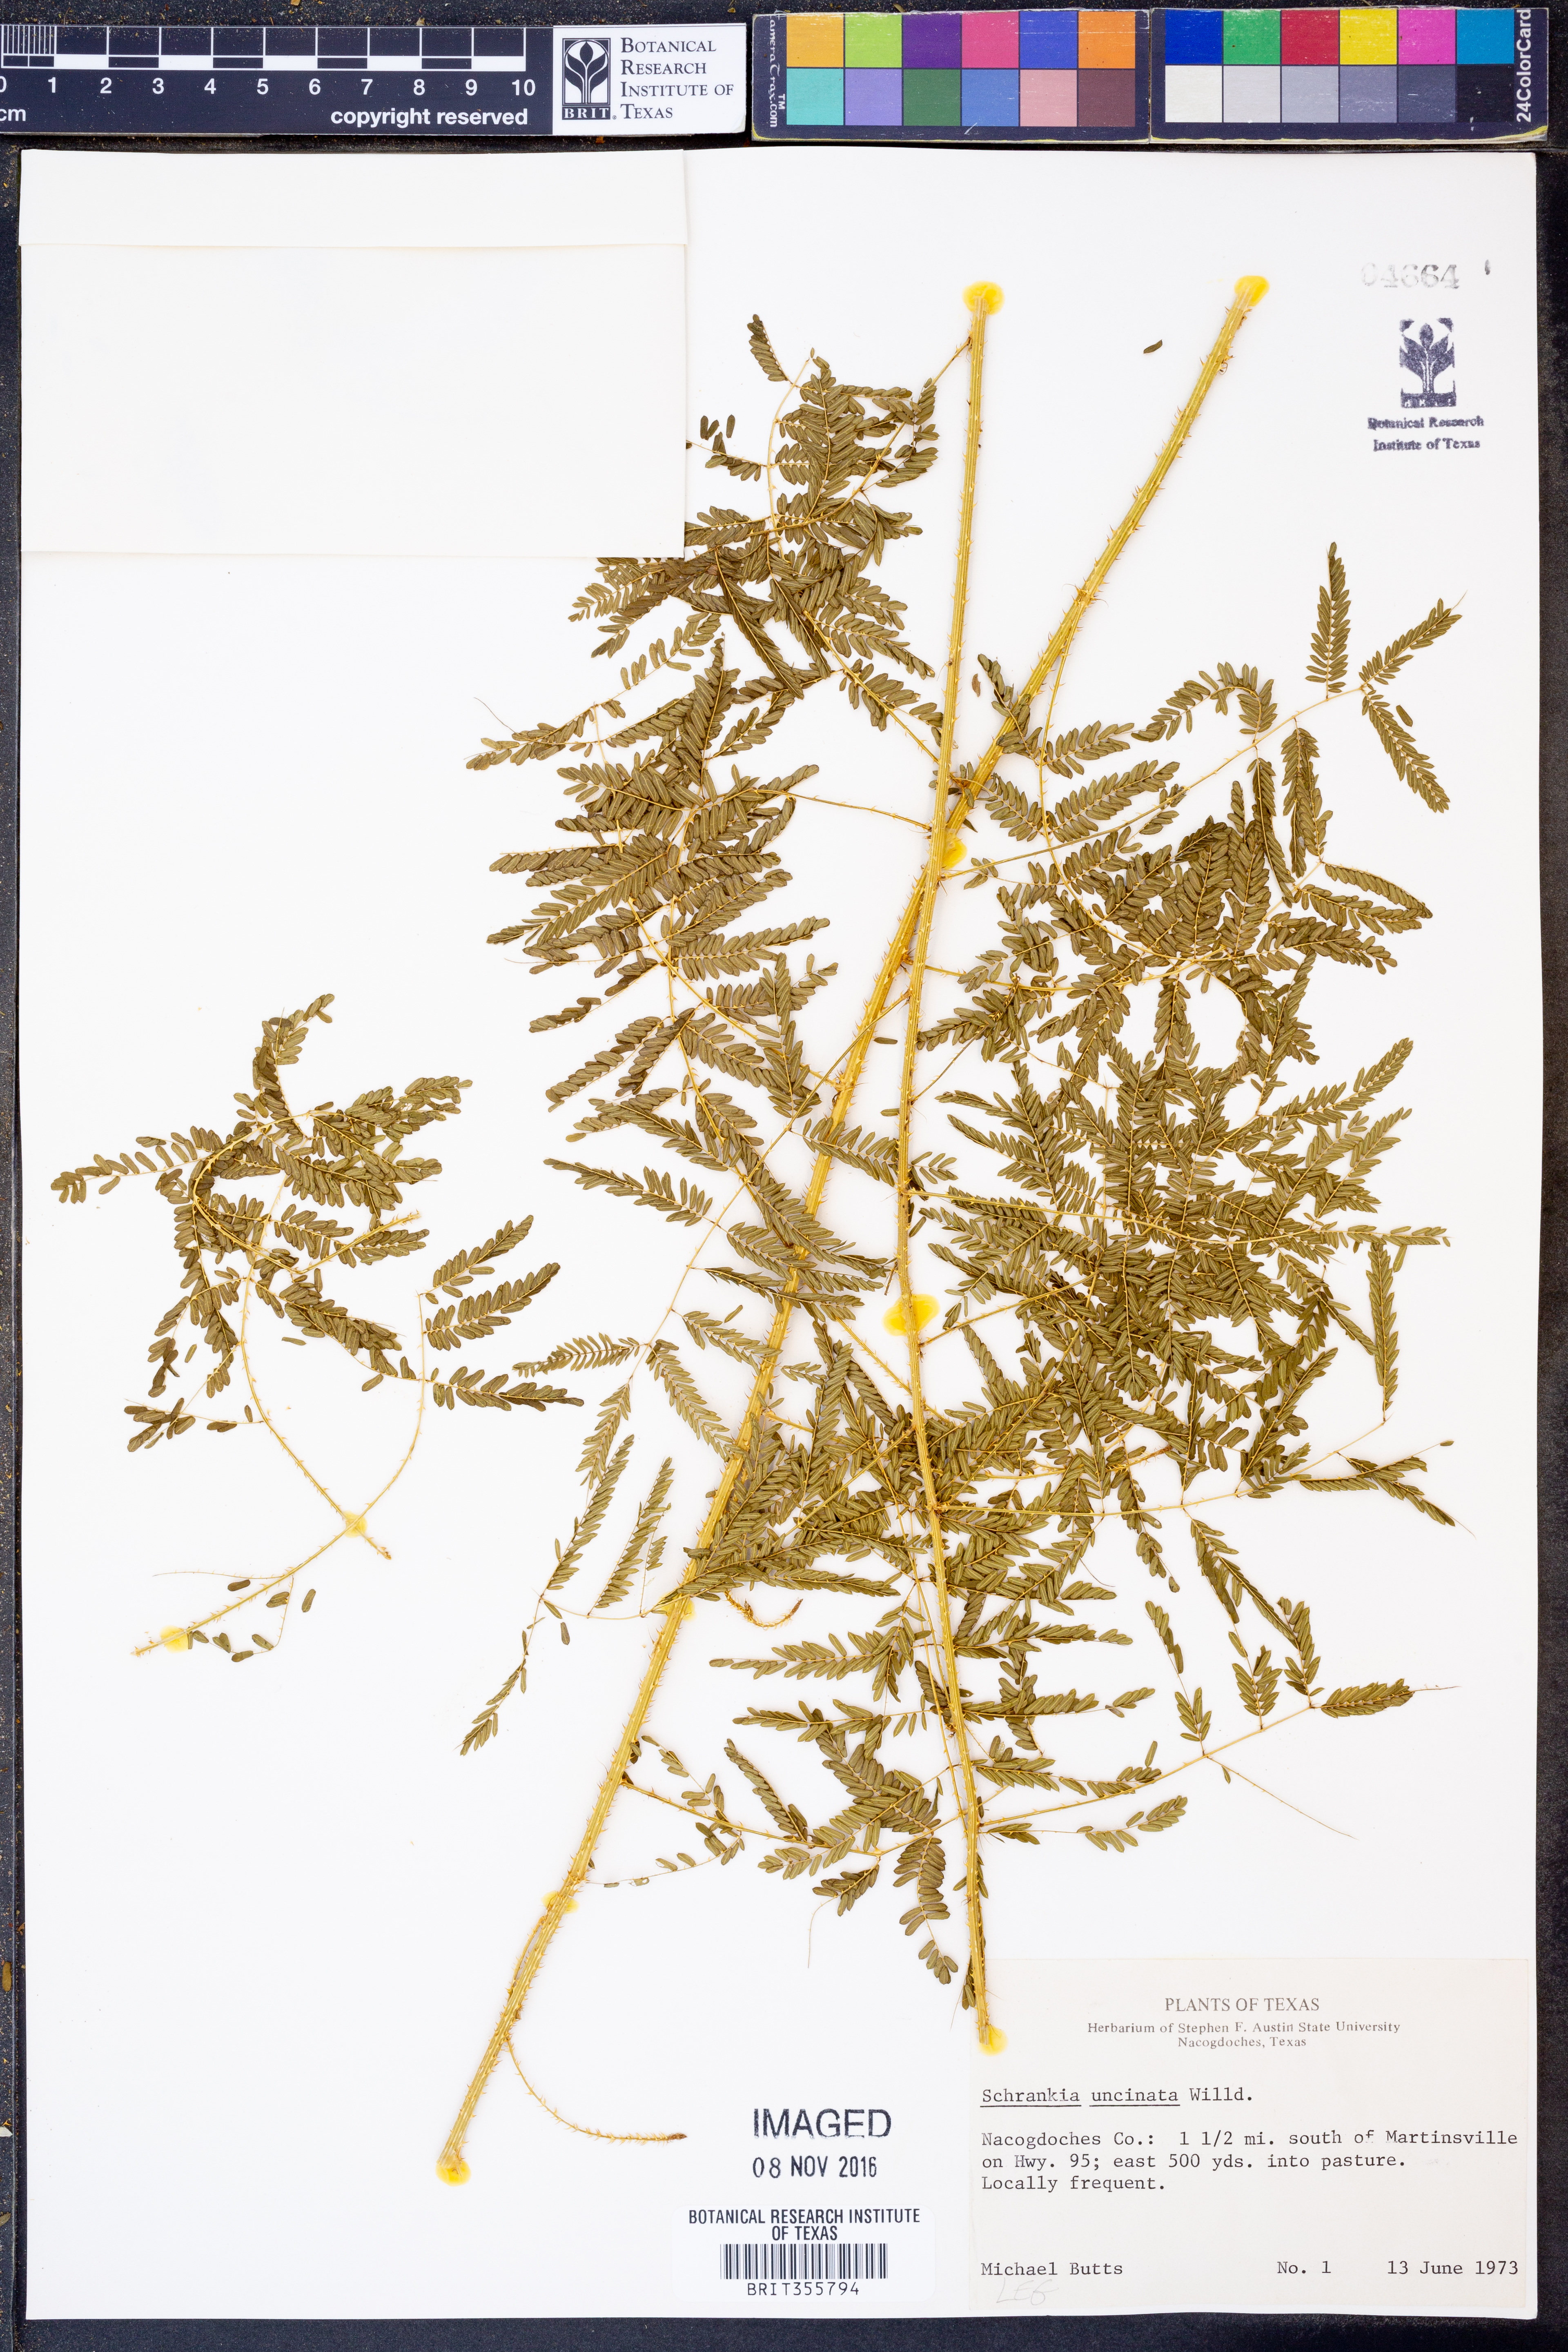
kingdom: Plantae
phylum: Tracheophyta
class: Magnoliopsida
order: Fabales
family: Fabaceae
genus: Mimosa
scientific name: Mimosa quadrivalvis
